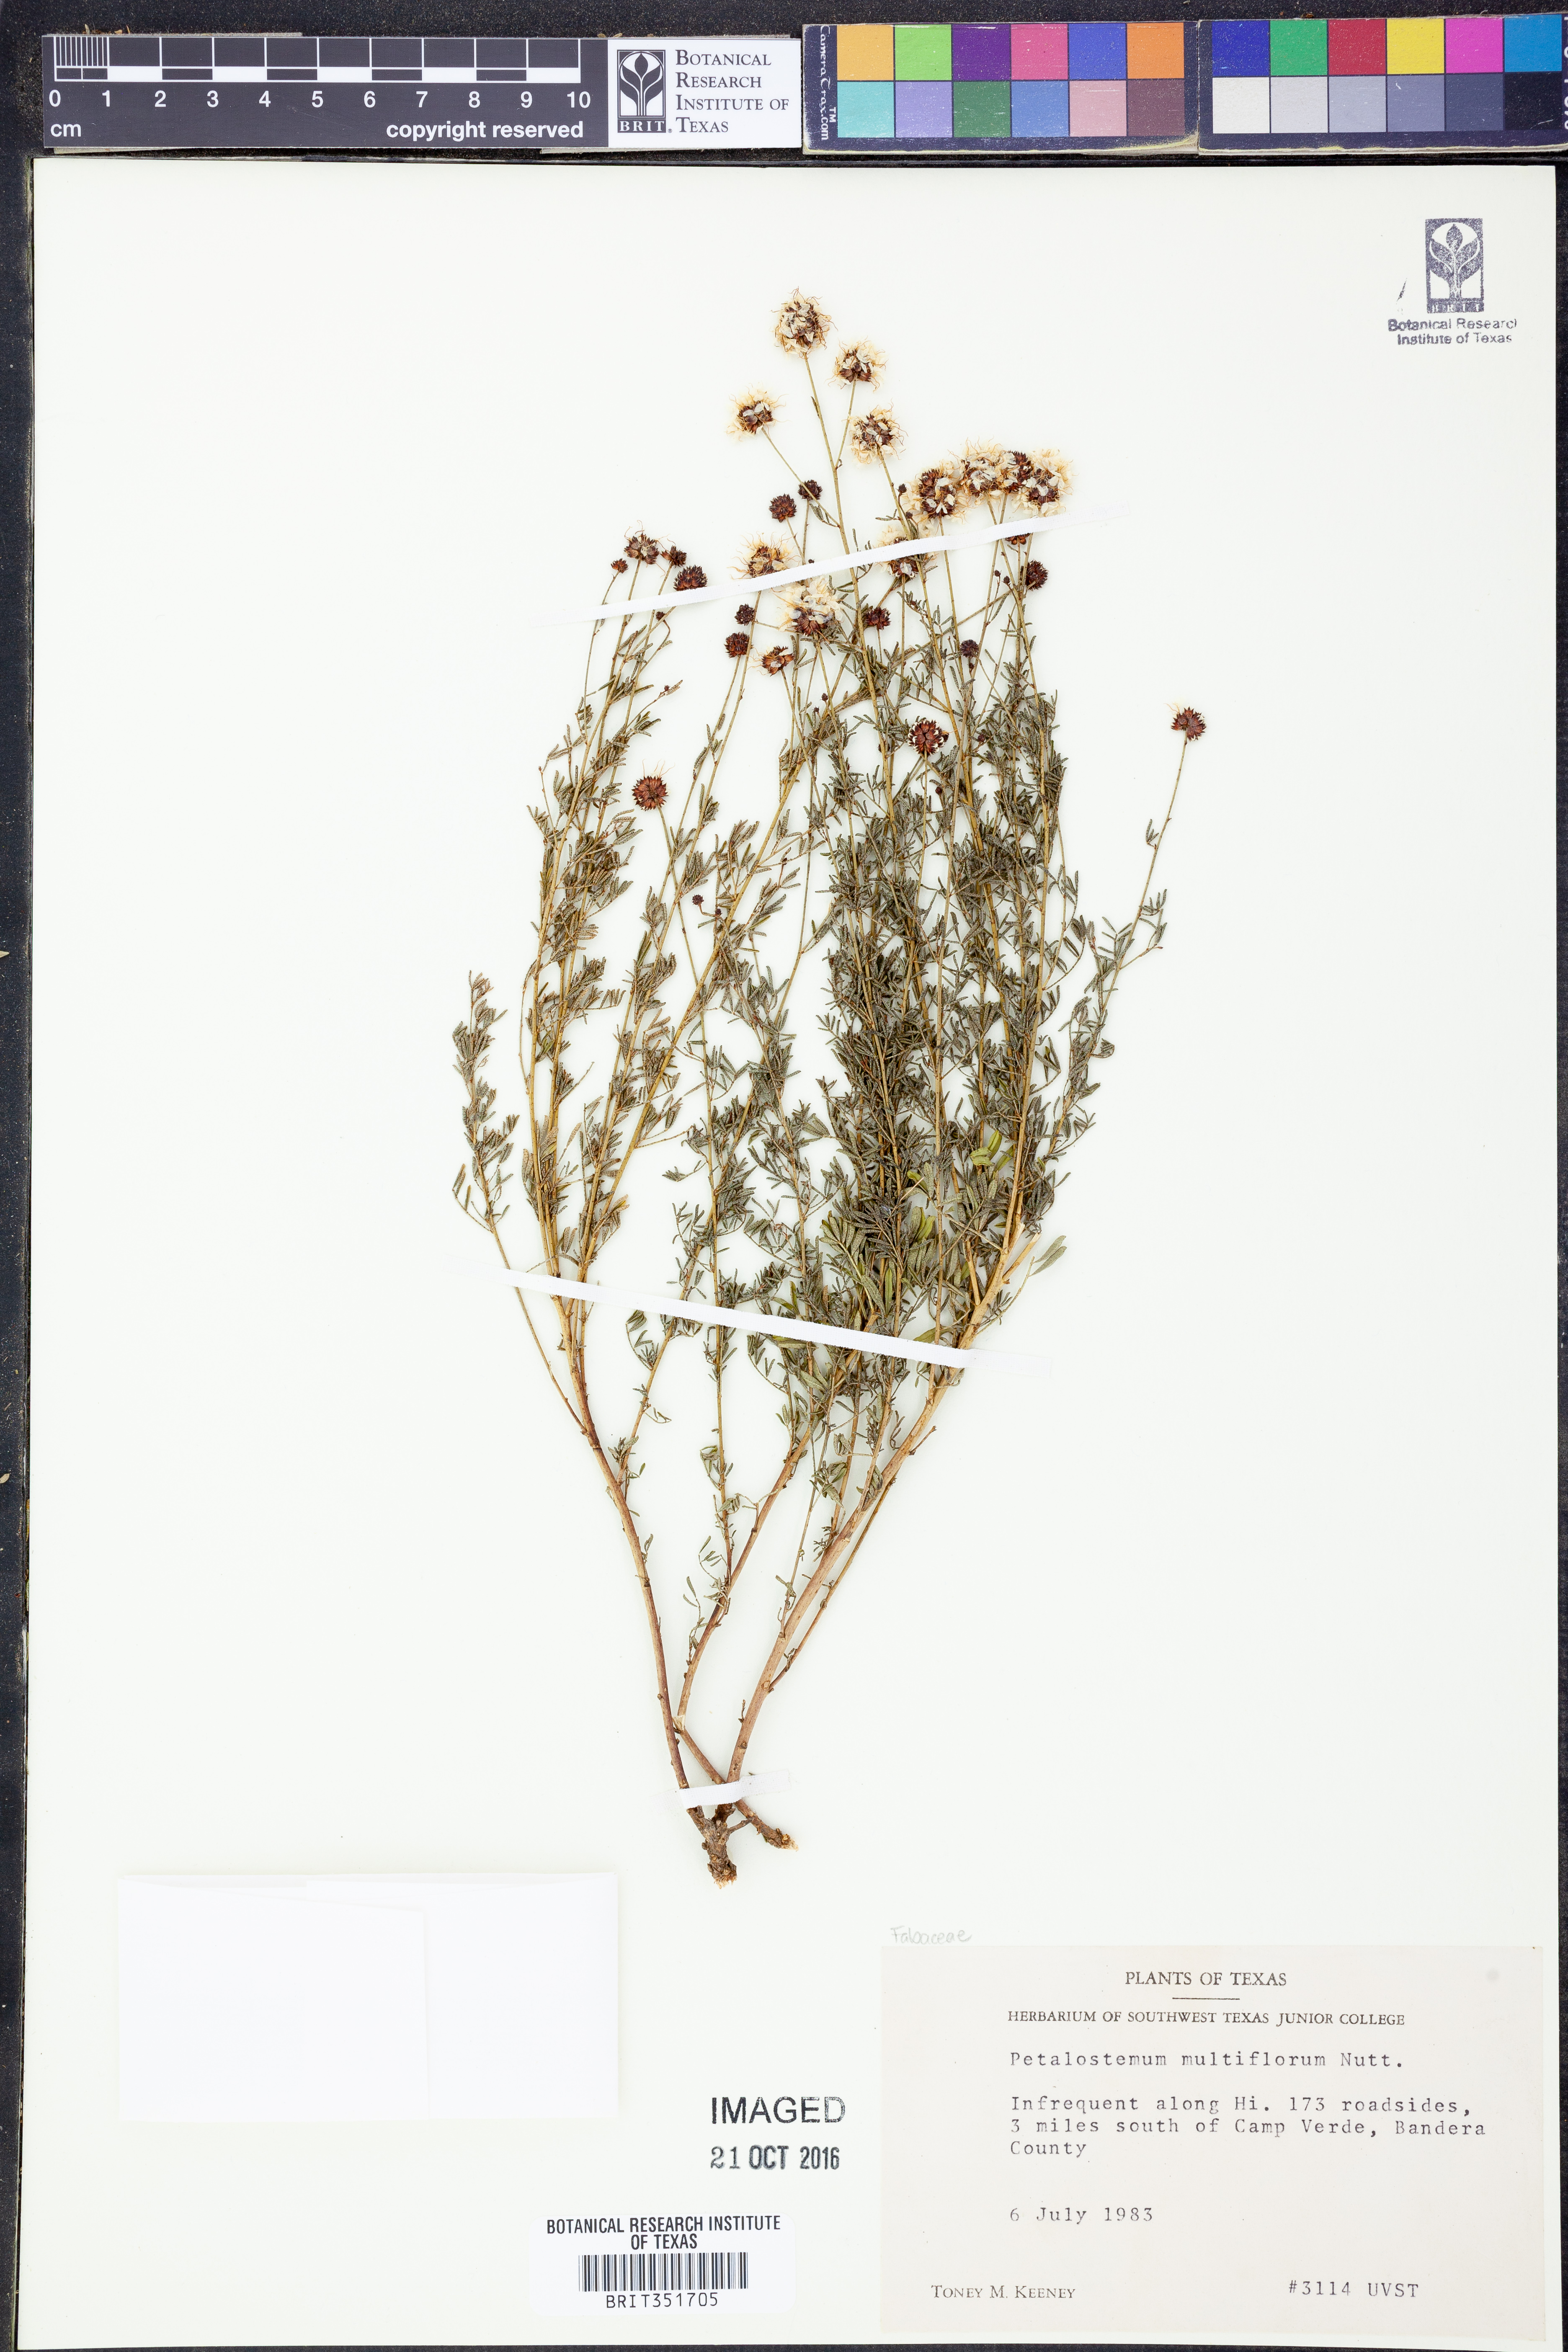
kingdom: Plantae
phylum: Tracheophyta
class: Magnoliopsida
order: Fabales
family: Fabaceae
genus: Dalea
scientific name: Dalea multiflora
